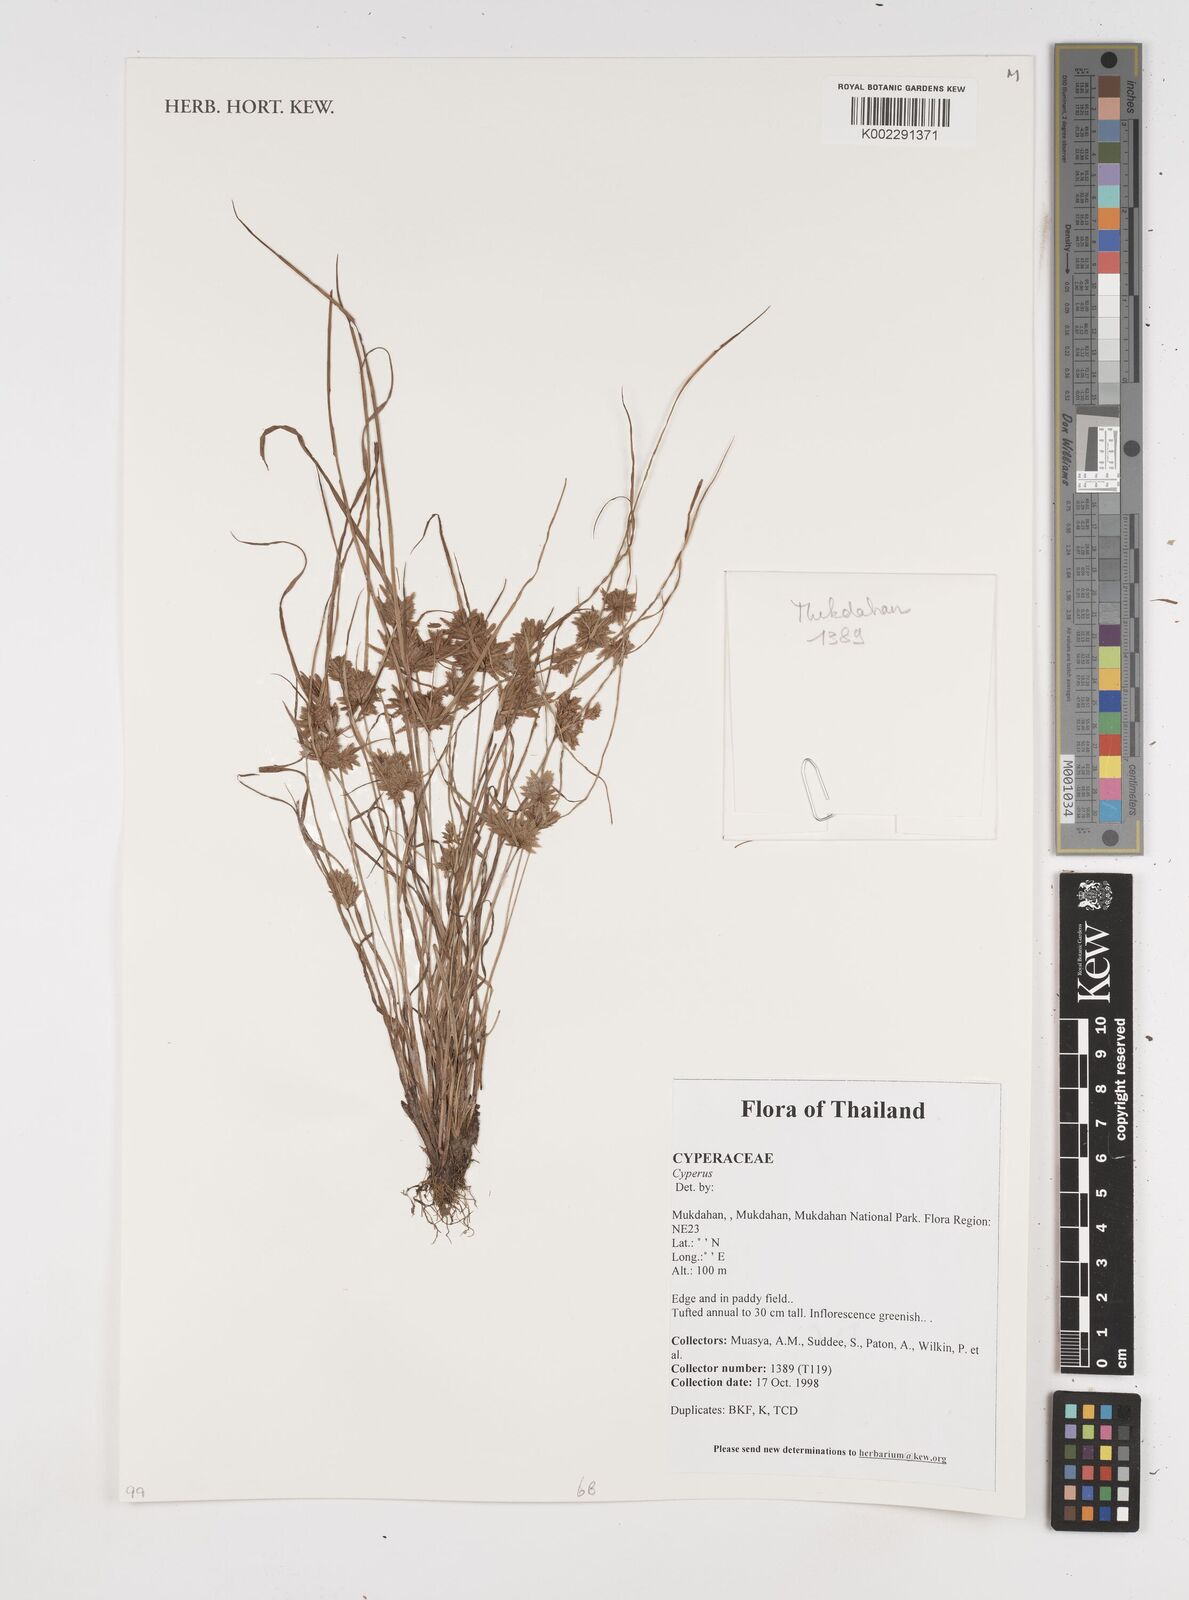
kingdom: Plantae
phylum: Tracheophyta
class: Liliopsida
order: Poales
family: Cyperaceae
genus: Cyperus
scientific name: Cyperus
